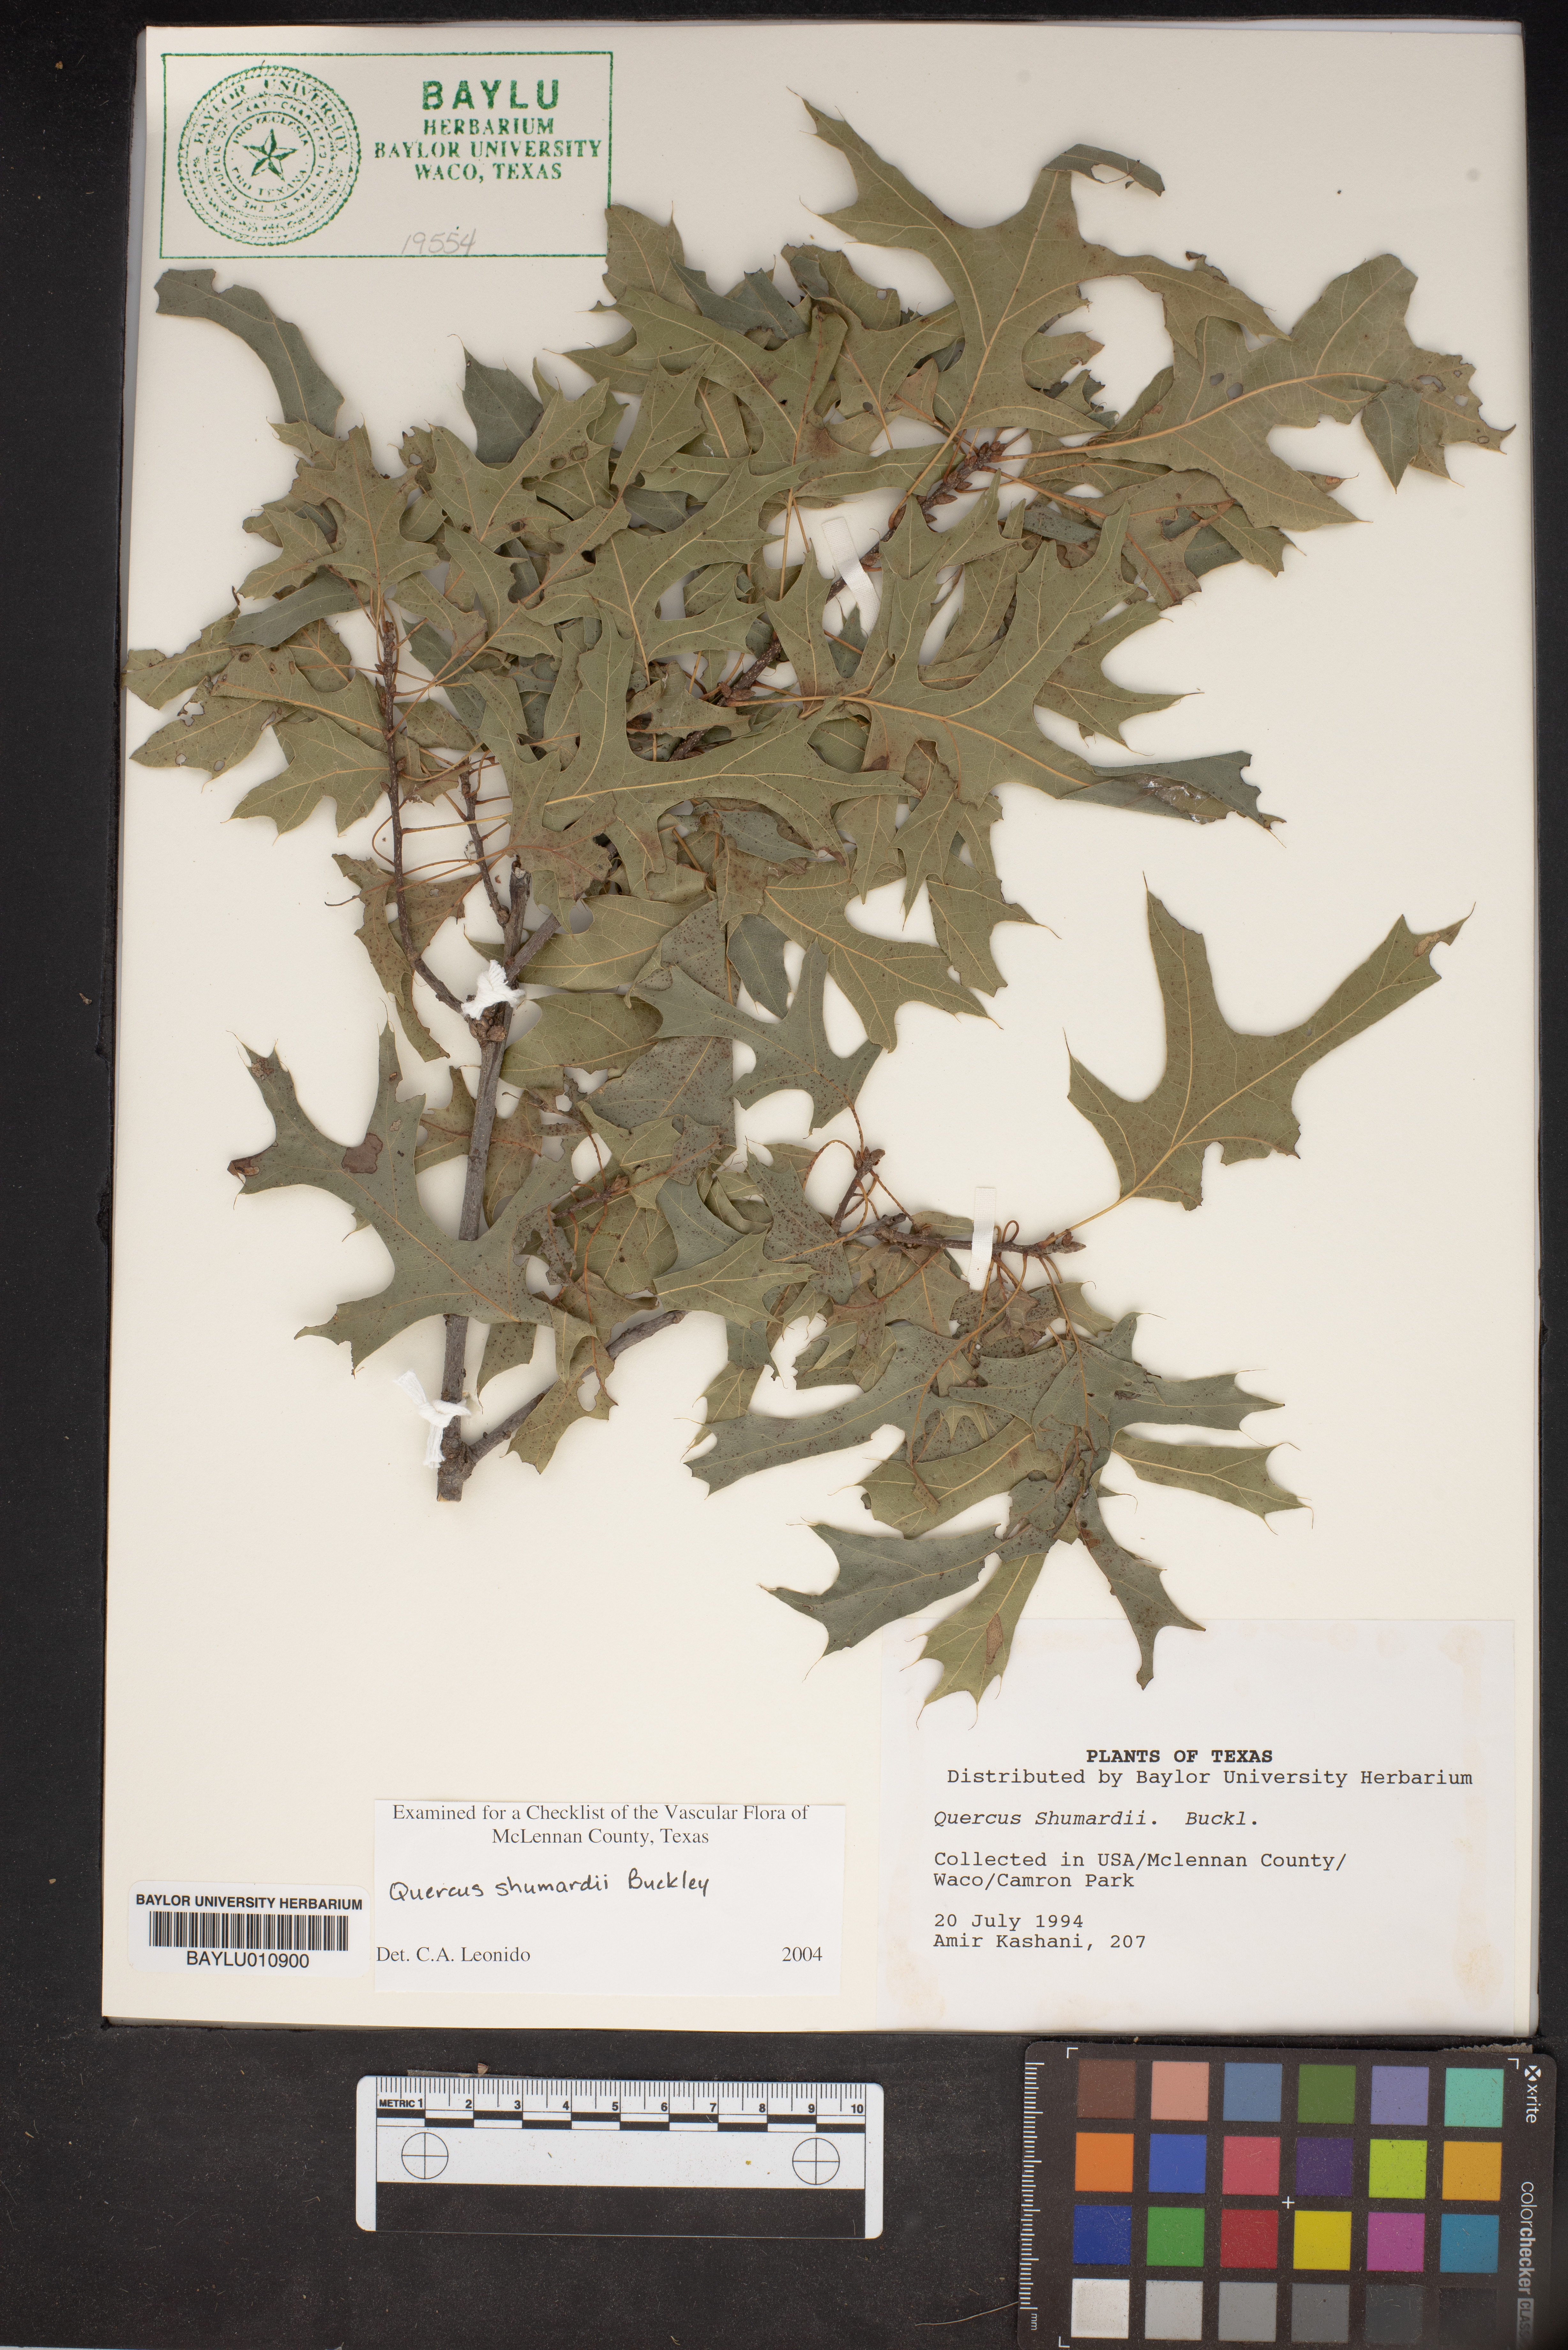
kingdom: Plantae
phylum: Tracheophyta
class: Magnoliopsida
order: Fagales
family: Fagaceae
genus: Quercus
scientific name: Quercus shumardii
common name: Shumard oak
